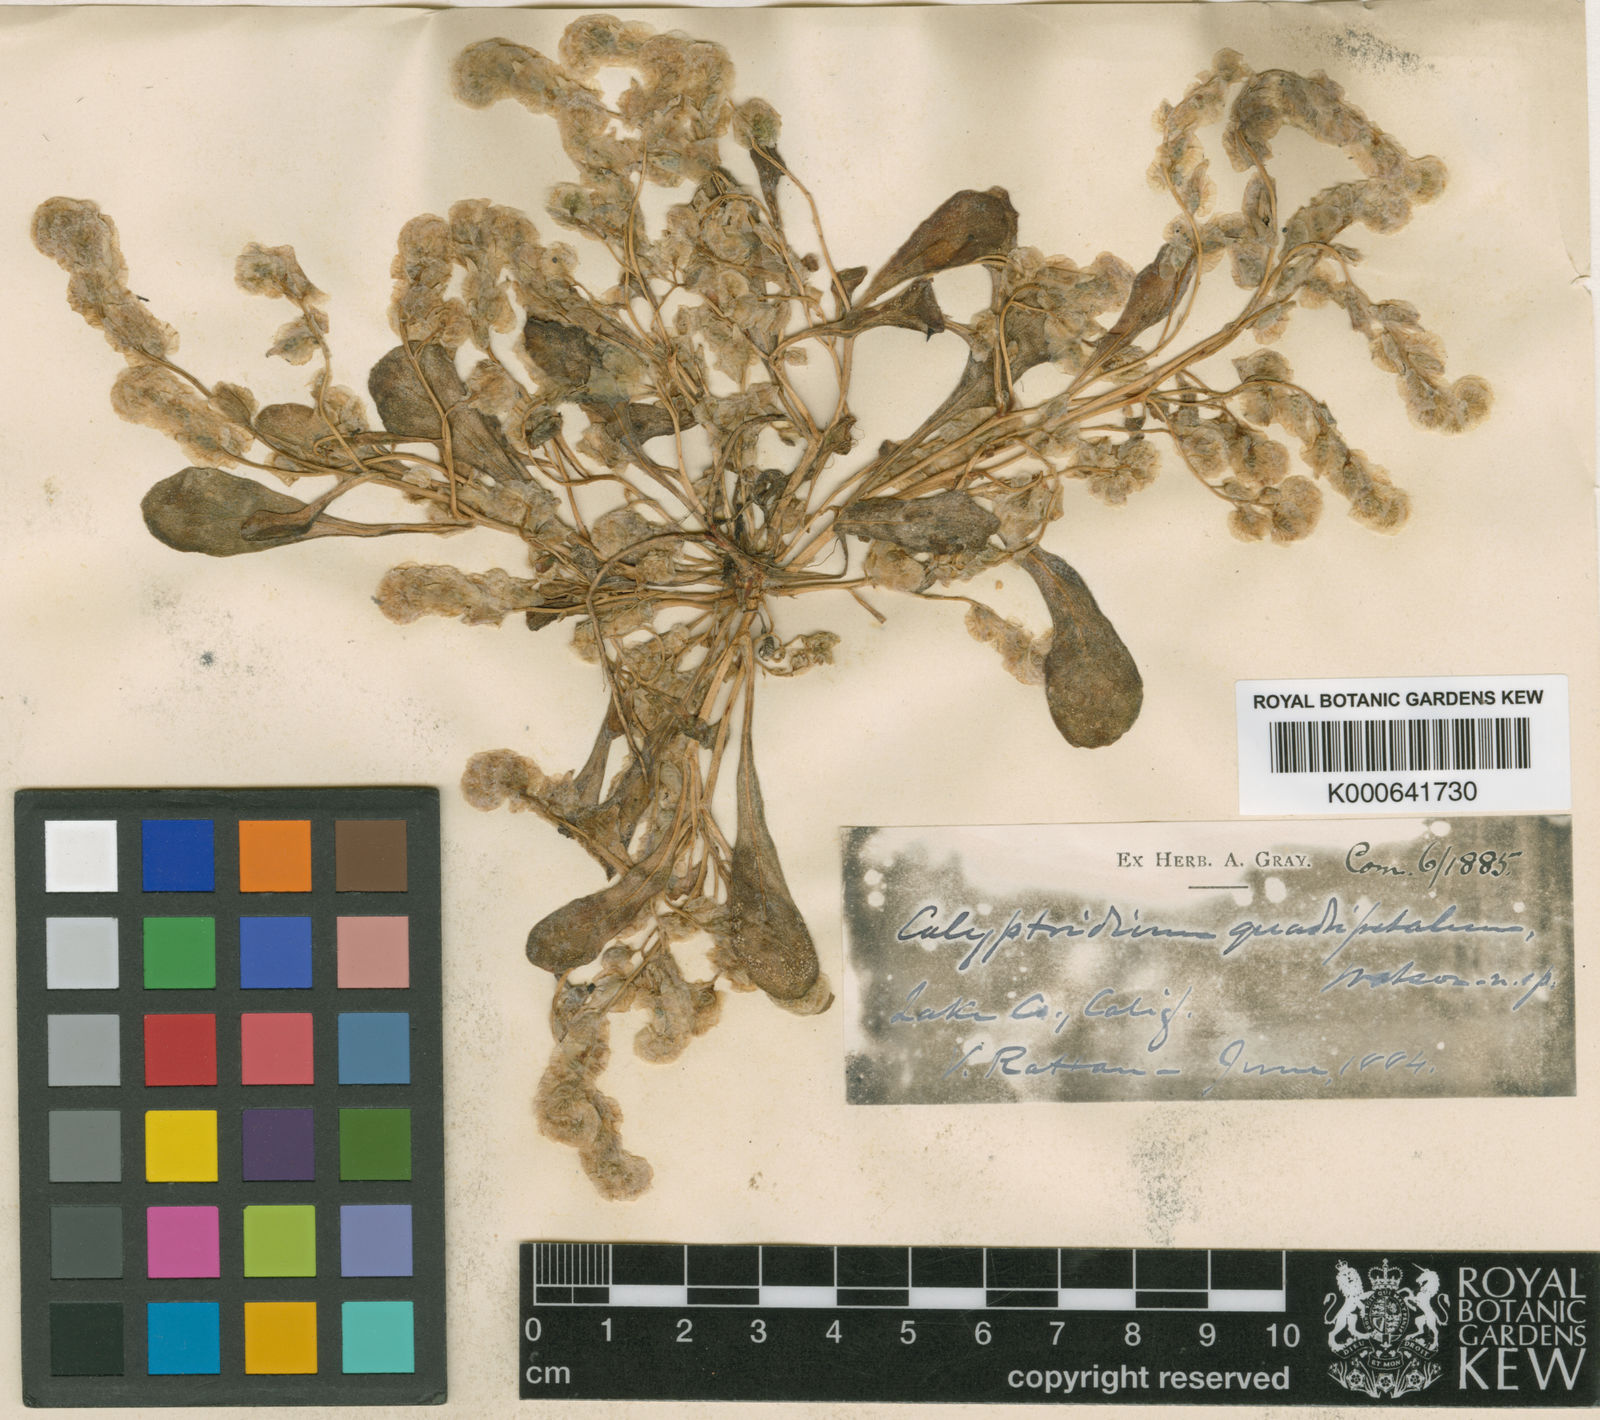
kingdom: Plantae
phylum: Tracheophyta
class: Magnoliopsida
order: Caryophyllales
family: Montiaceae
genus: Calyptridium
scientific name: Calyptridium quadripetalum
